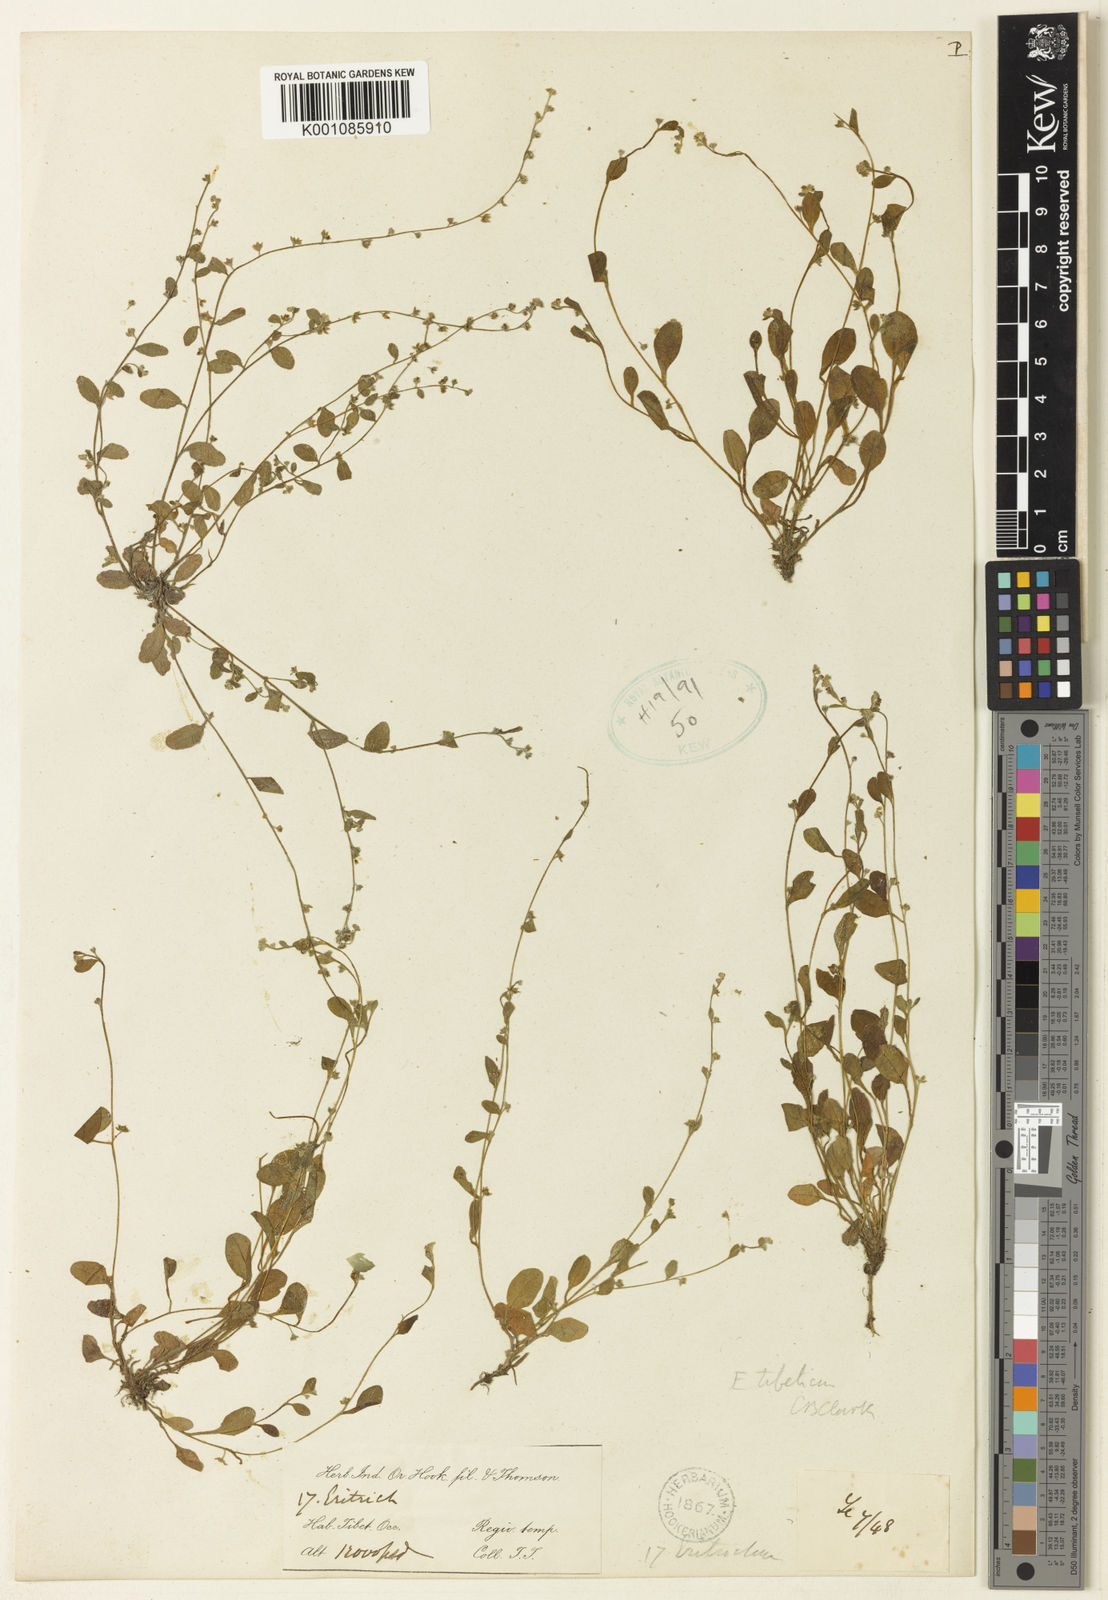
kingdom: Plantae
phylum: Tracheophyta
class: Magnoliopsida
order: Boraginales
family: Boraginaceae
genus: Trigonotis
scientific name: Trigonotis
